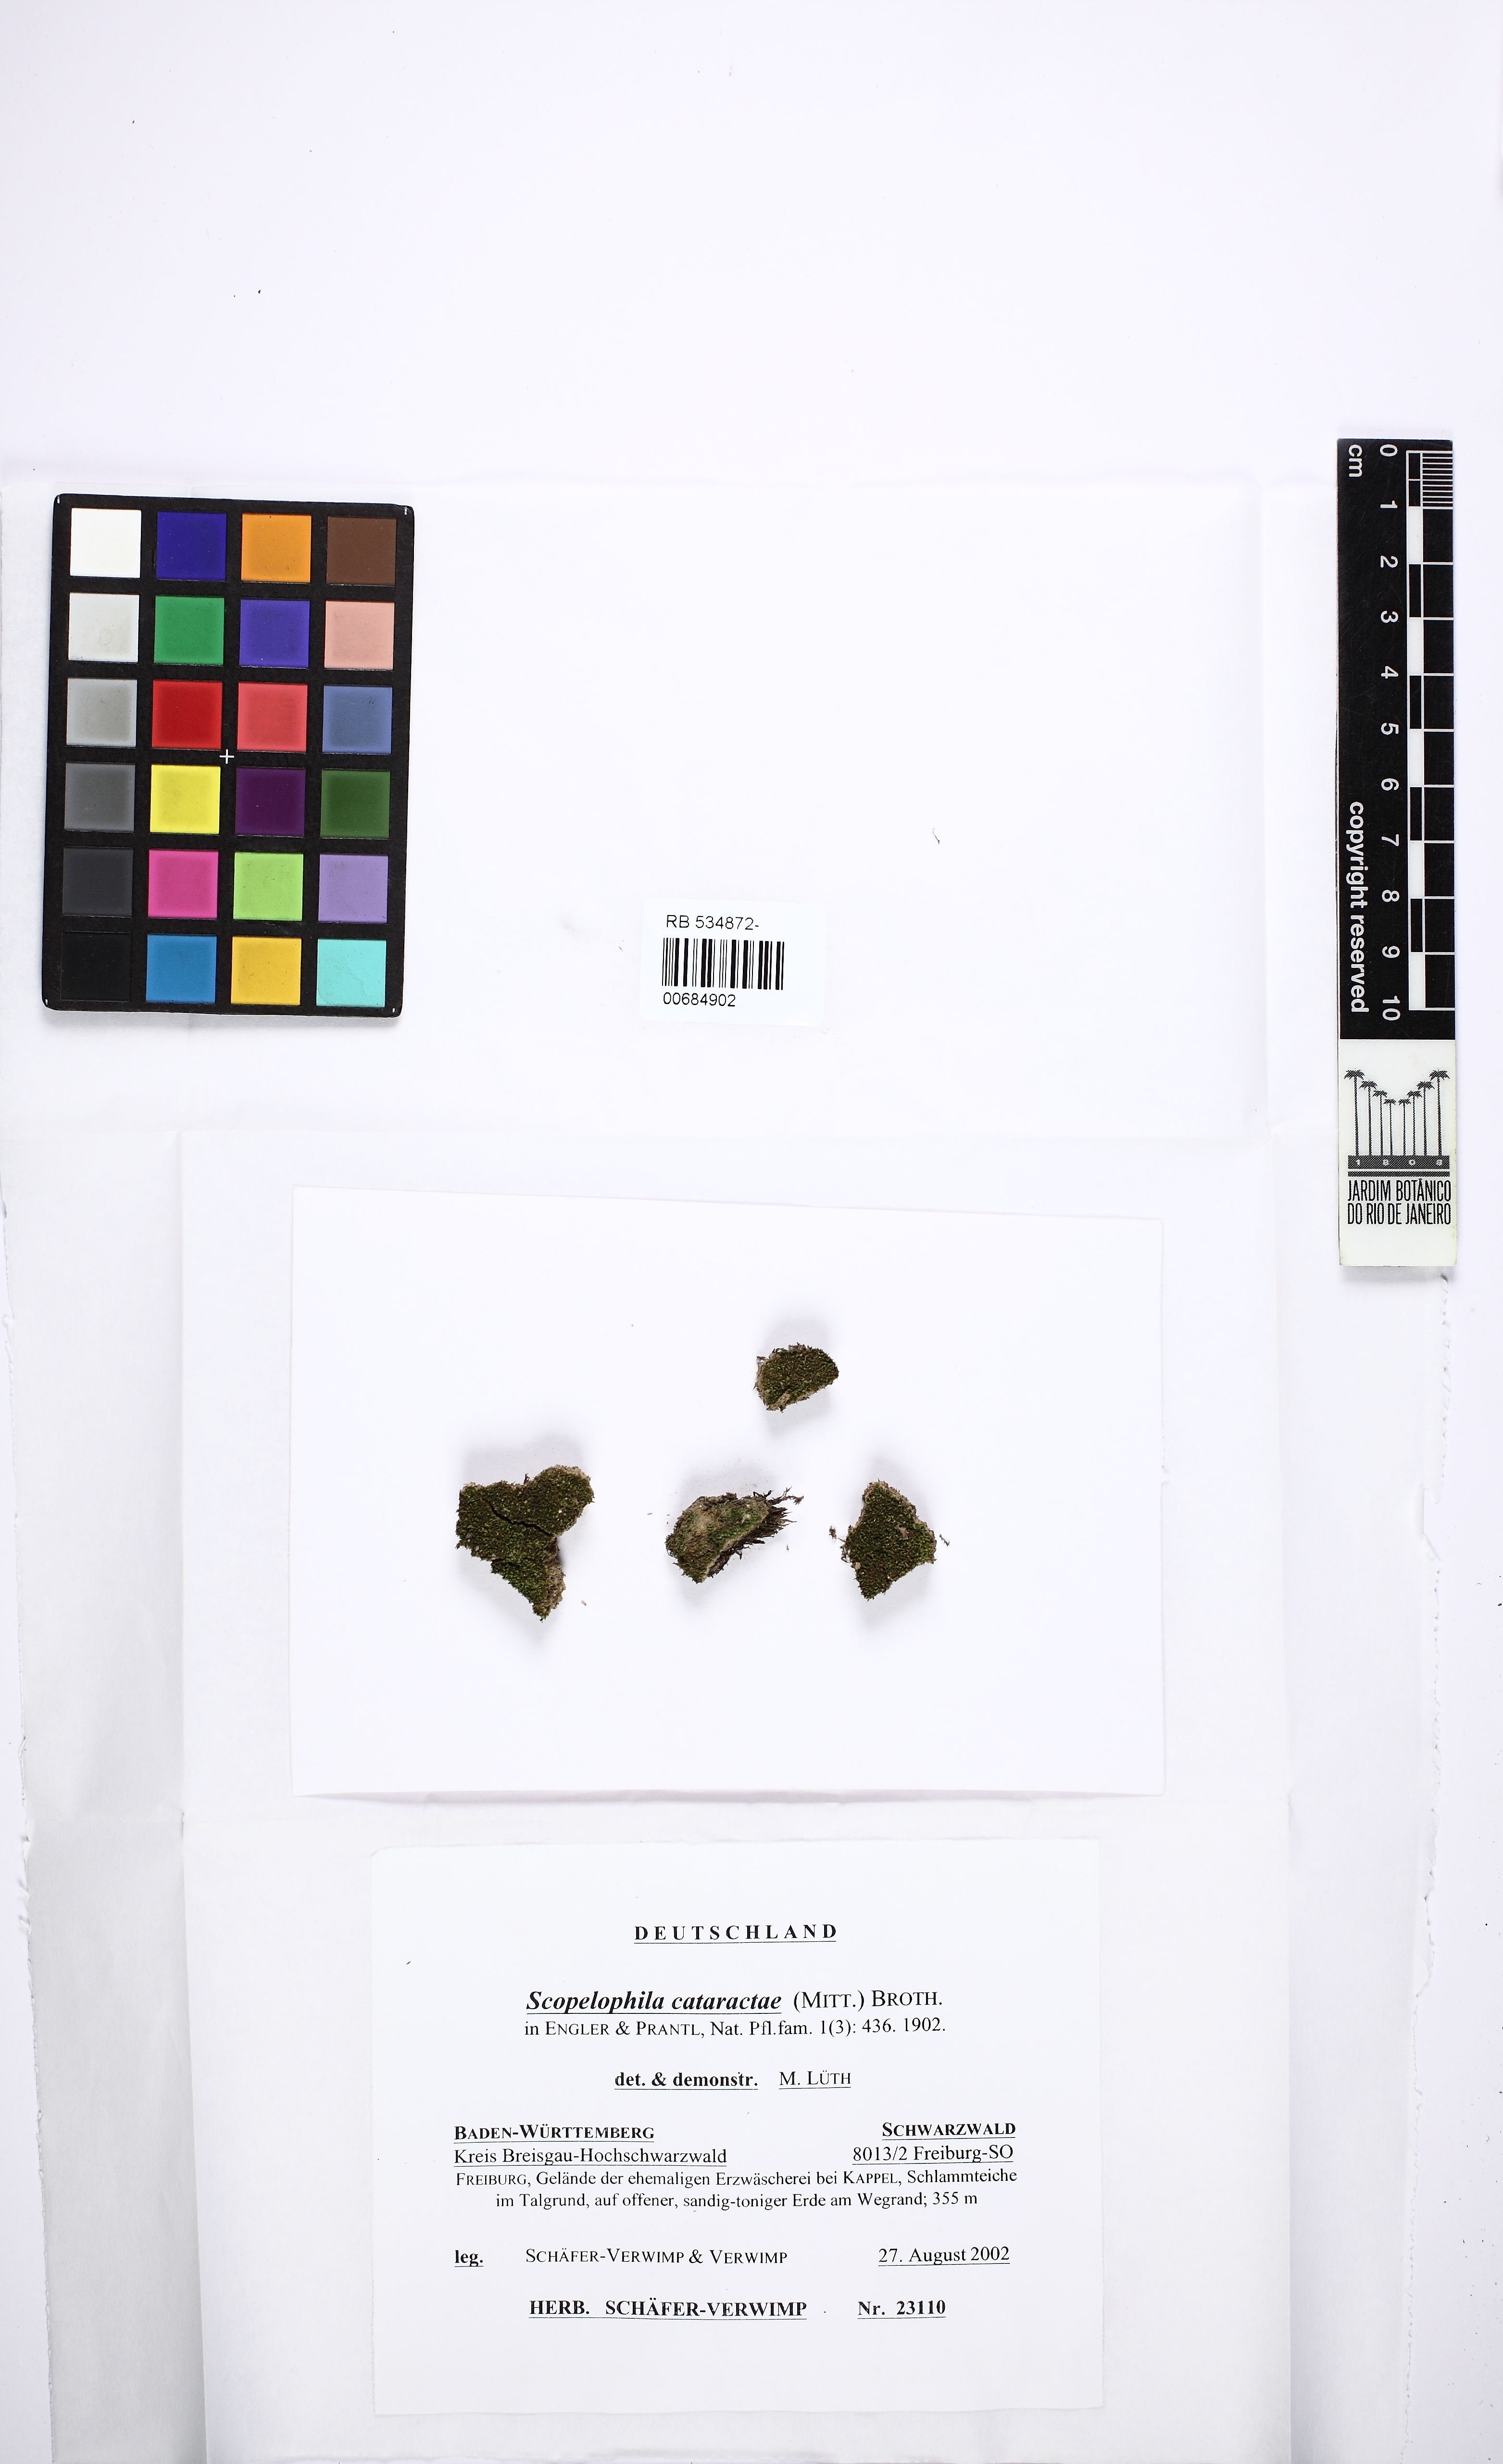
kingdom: Plantae
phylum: Bryophyta
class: Bryopsida
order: Pottiales
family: Pottiaceae
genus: Scopelophila
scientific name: Scopelophila cataractae
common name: Tongue-leaf copper-moss
